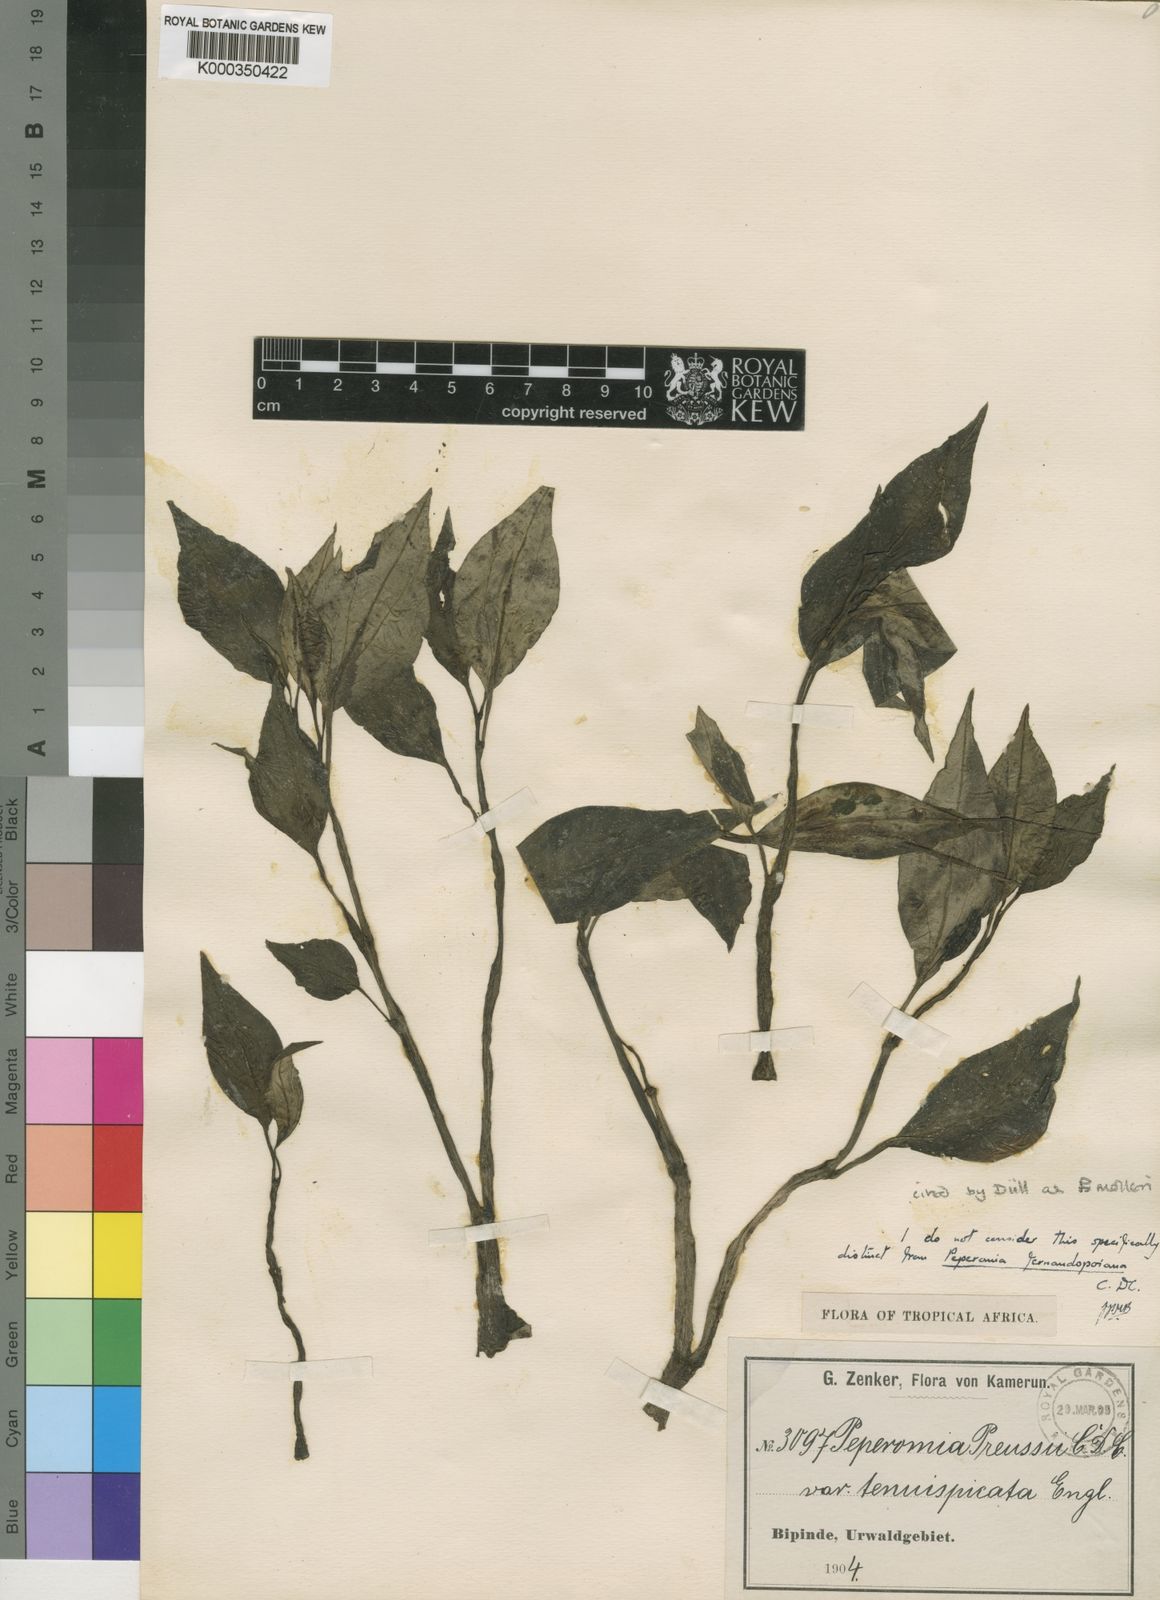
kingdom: Plantae
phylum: Tracheophyta
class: Magnoliopsida
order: Piperales
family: Piperaceae
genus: Peperomia
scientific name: Peperomia molleri
